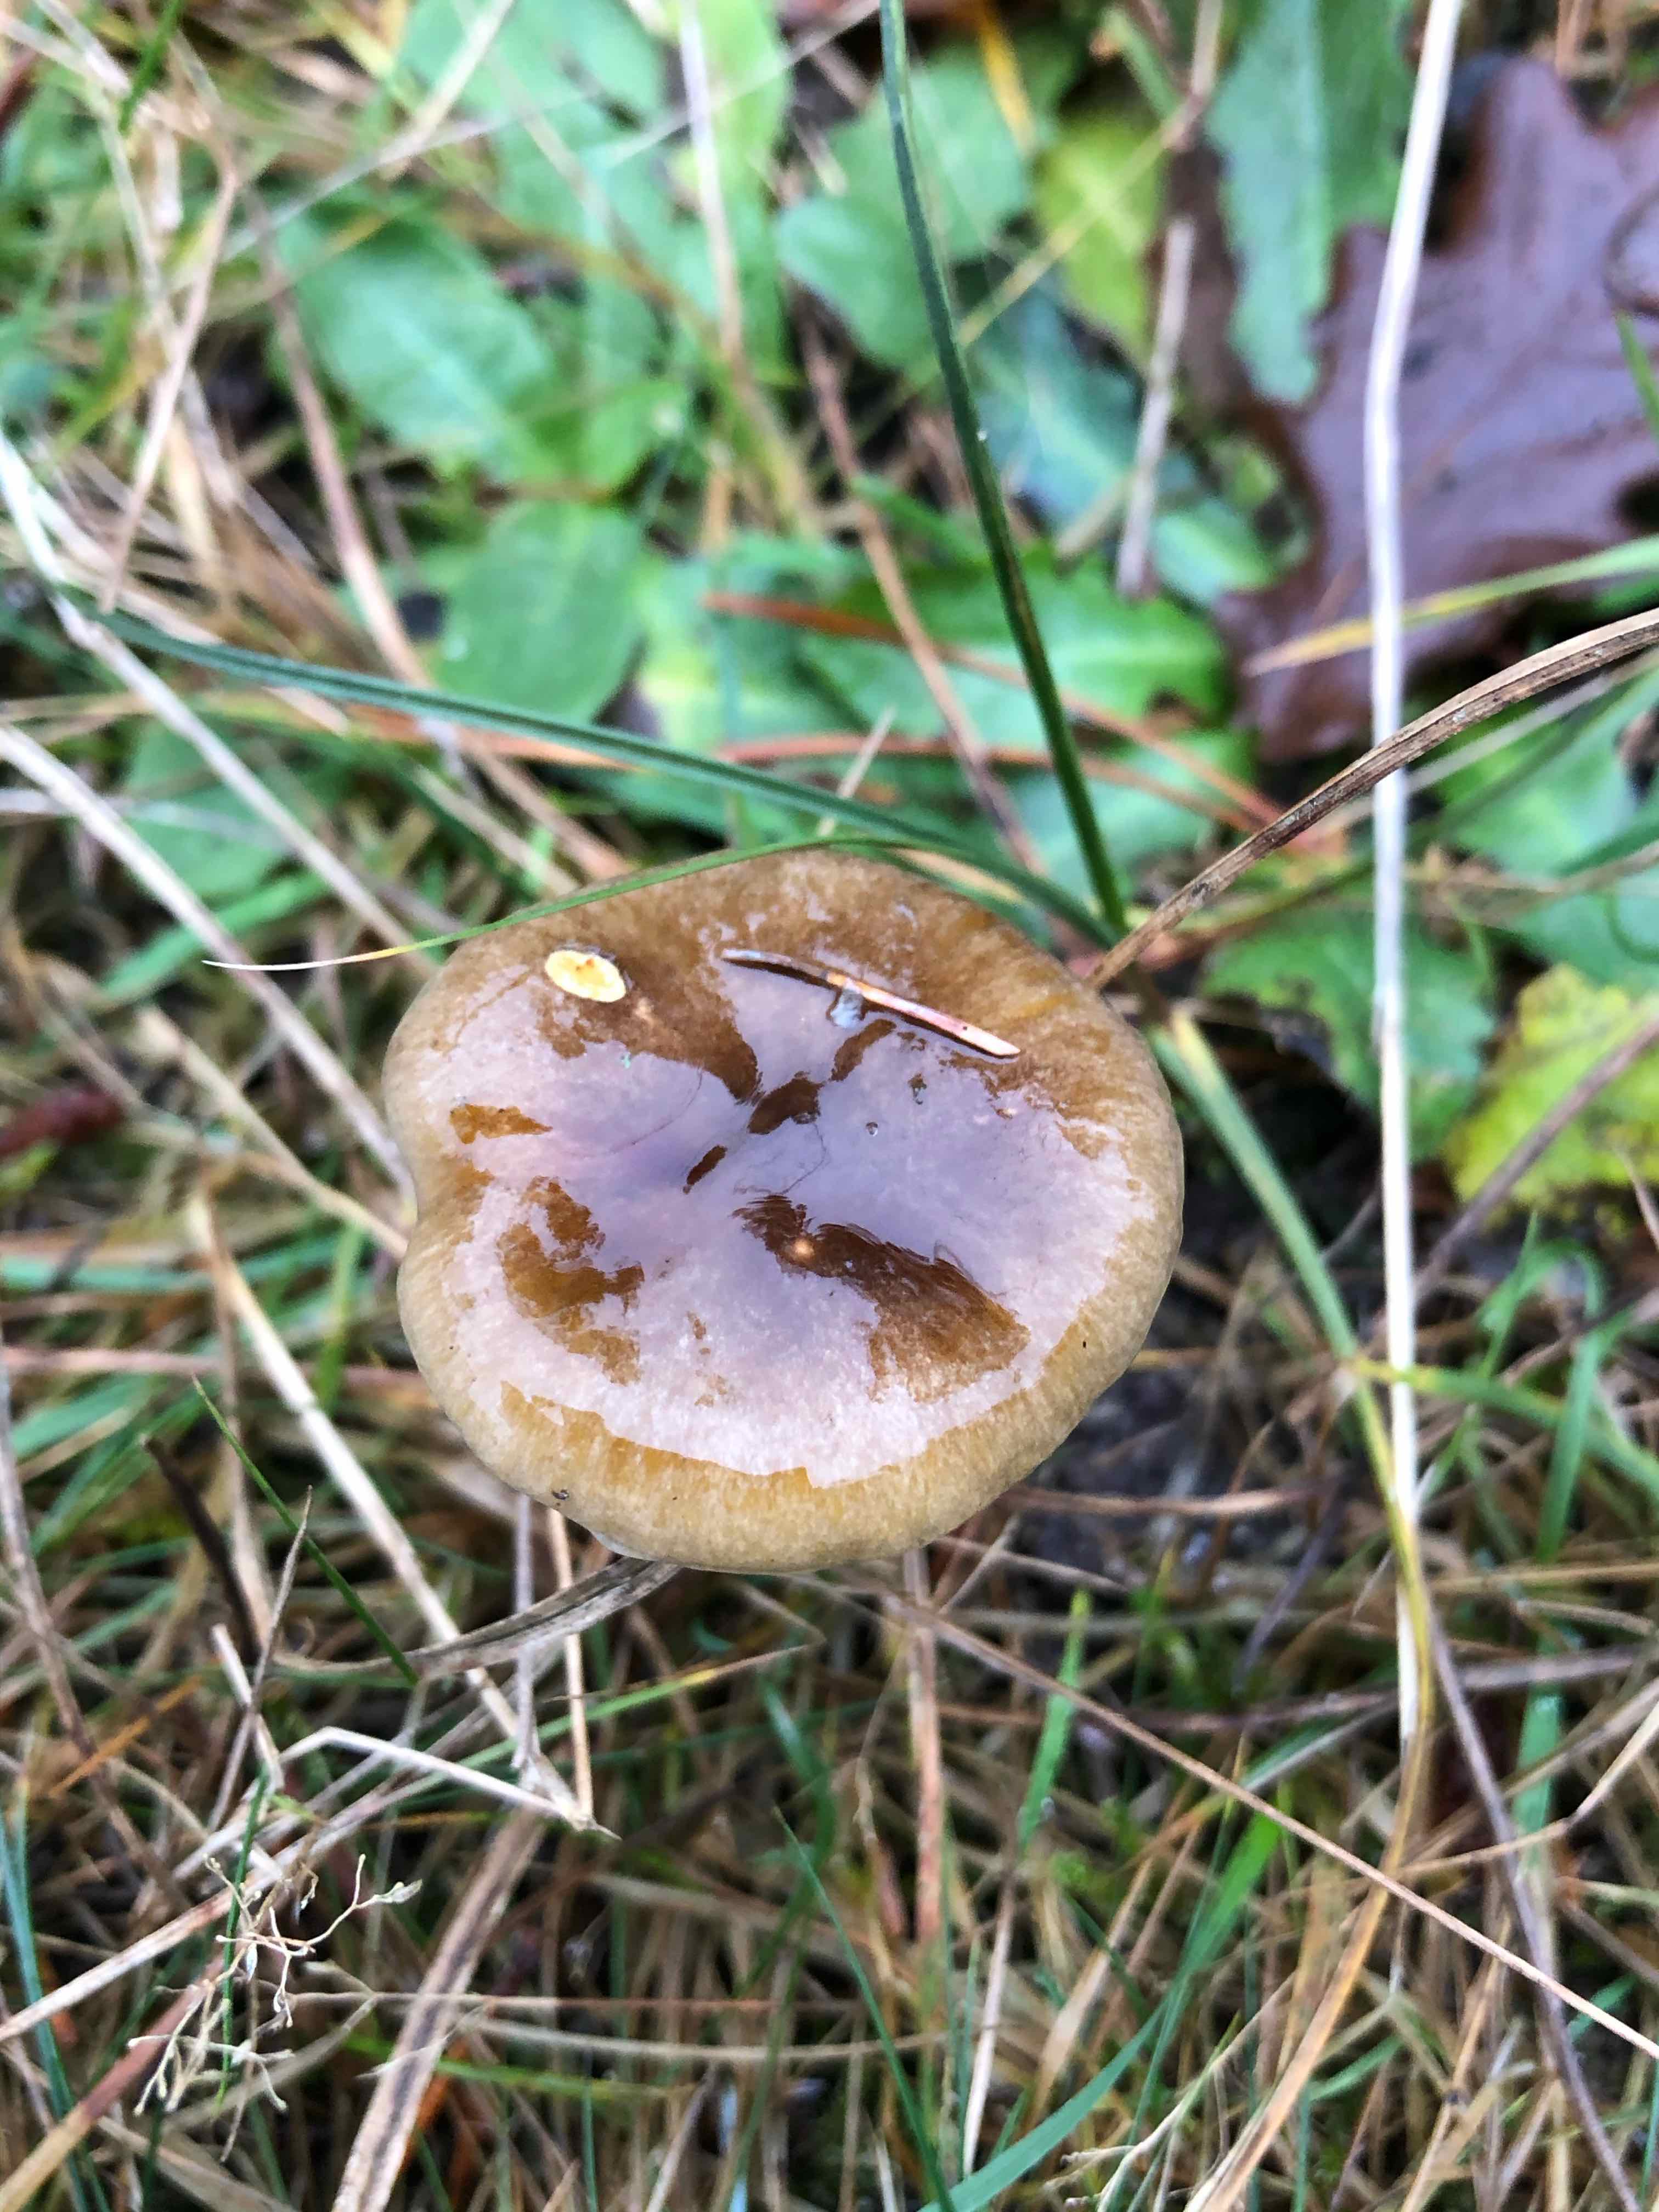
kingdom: Fungi
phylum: Basidiomycota
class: Agaricomycetes
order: Agaricales
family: Hygrophoraceae
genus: Hygrophorus
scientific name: Hygrophorus hypothejus
